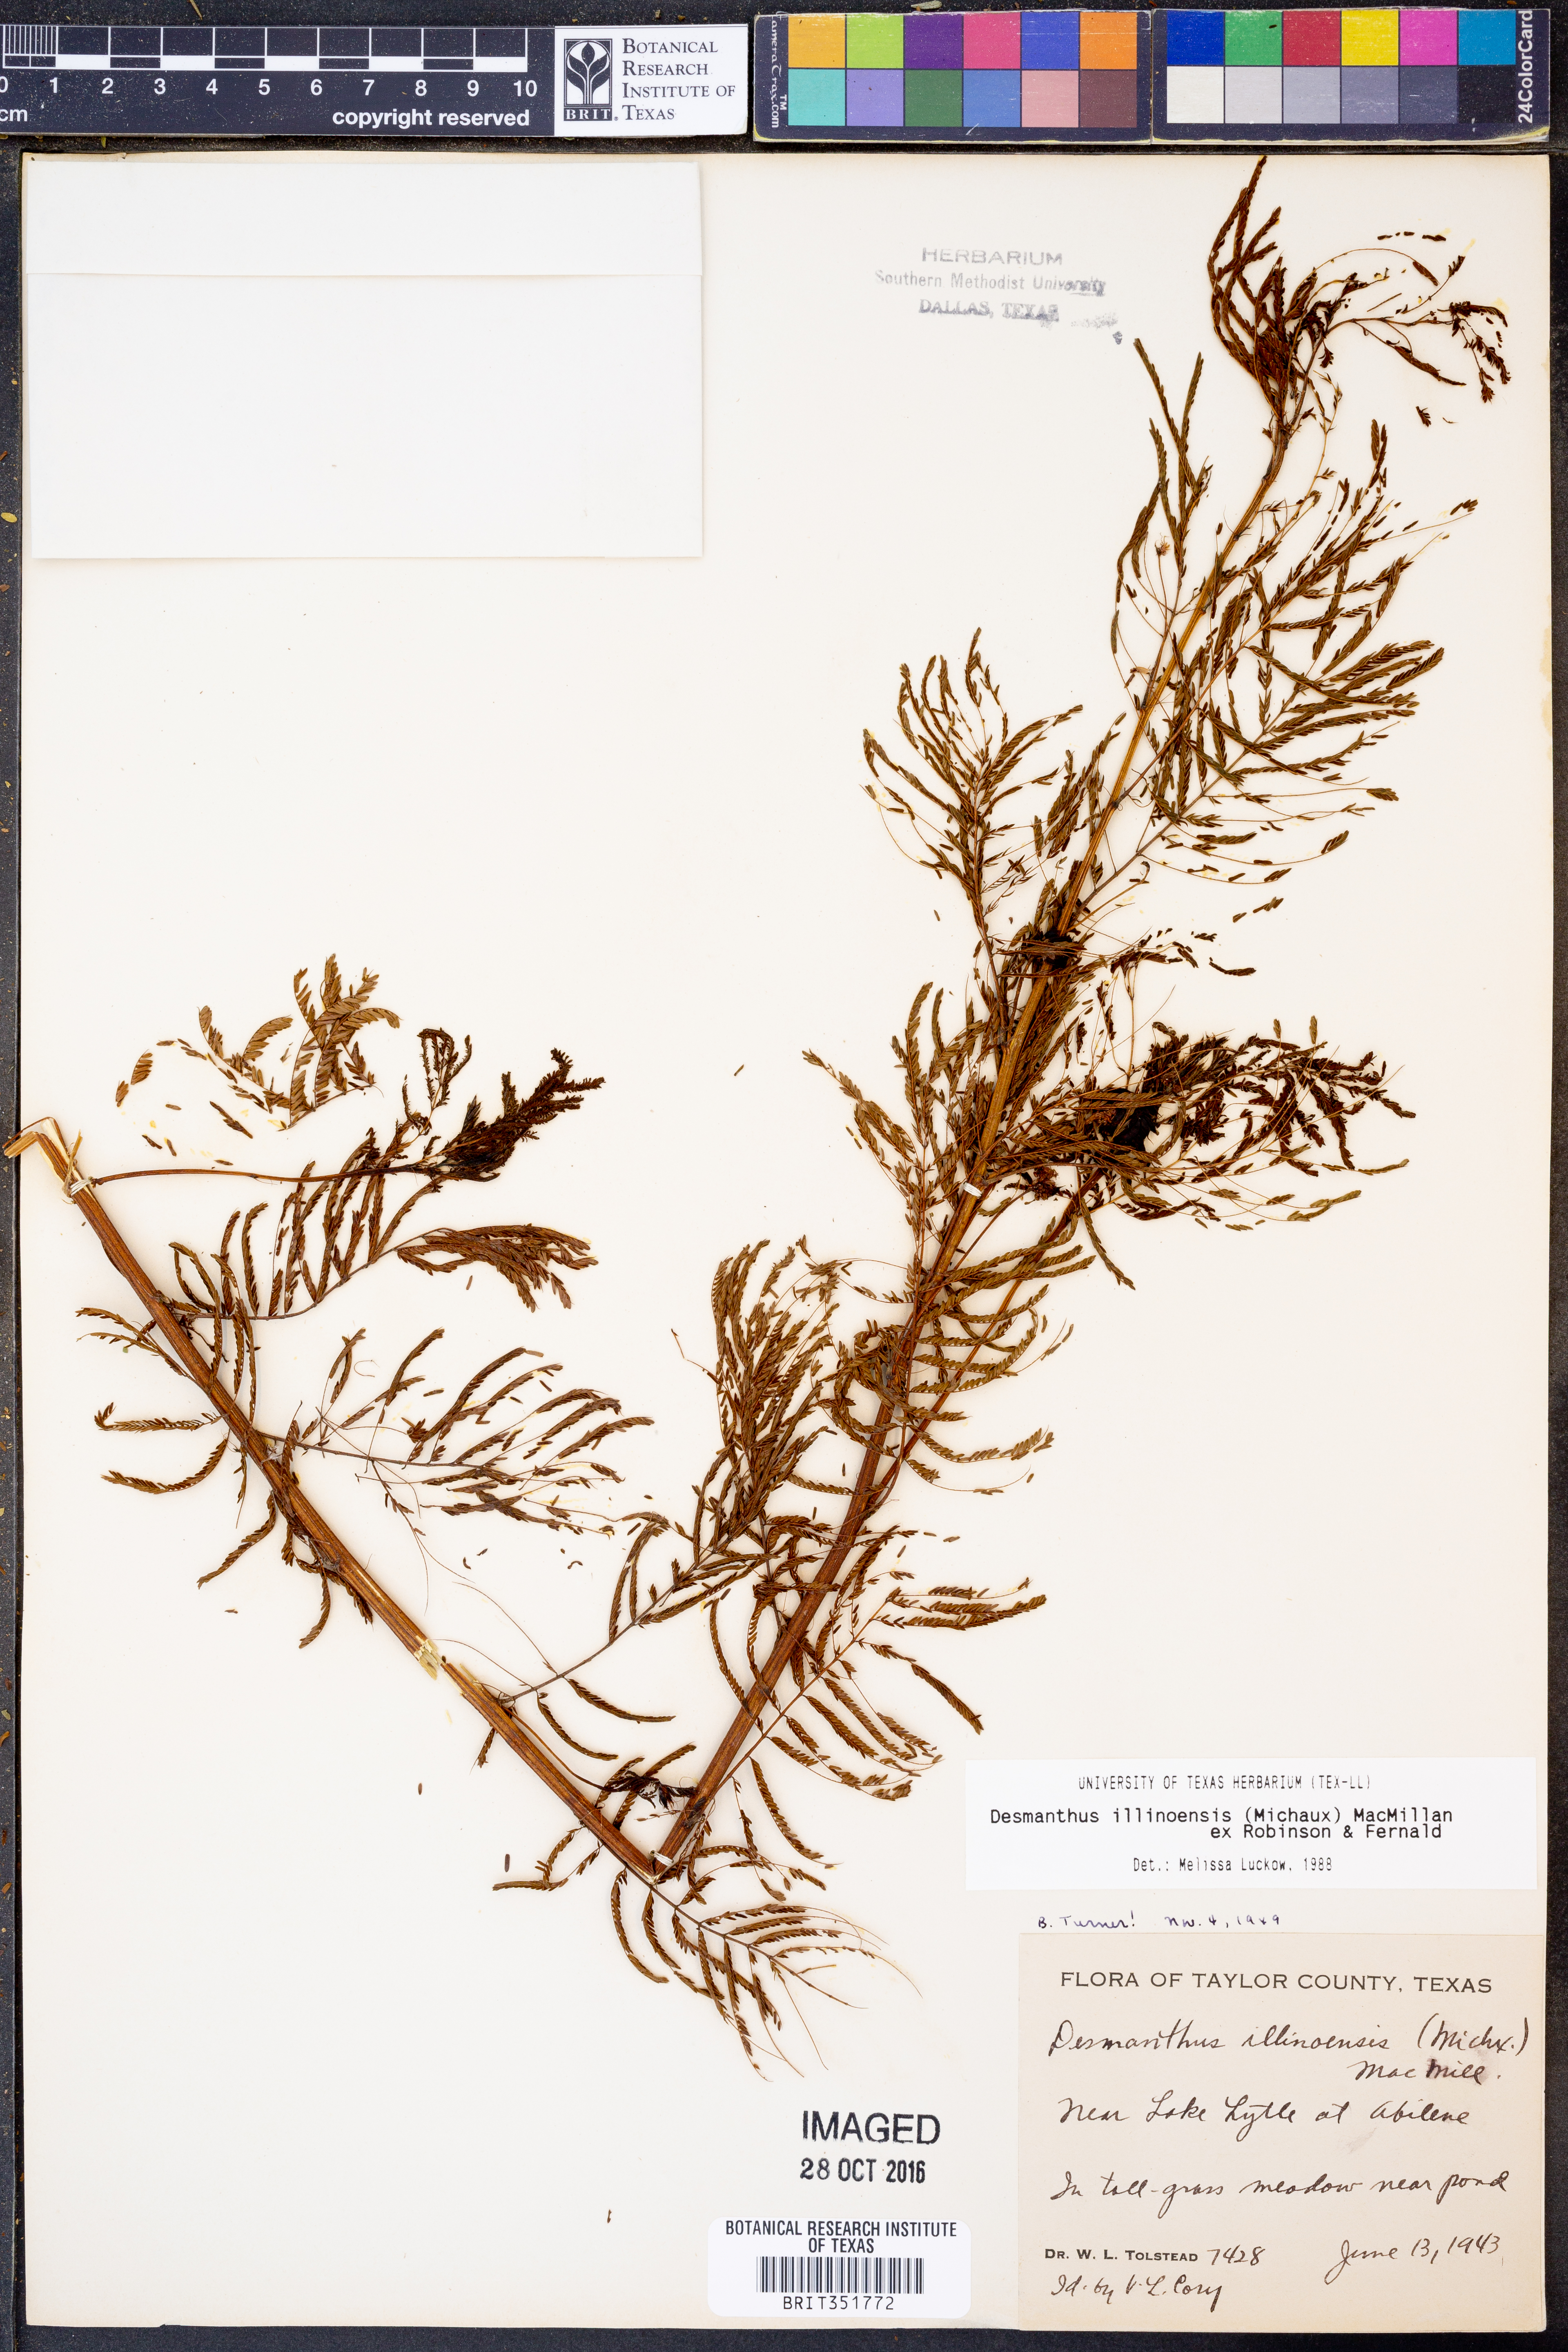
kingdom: Plantae
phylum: Tracheophyta
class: Magnoliopsida
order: Fabales
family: Fabaceae
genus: Desmanthus
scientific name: Desmanthus illinoensis
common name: Illinois bundle-flower
